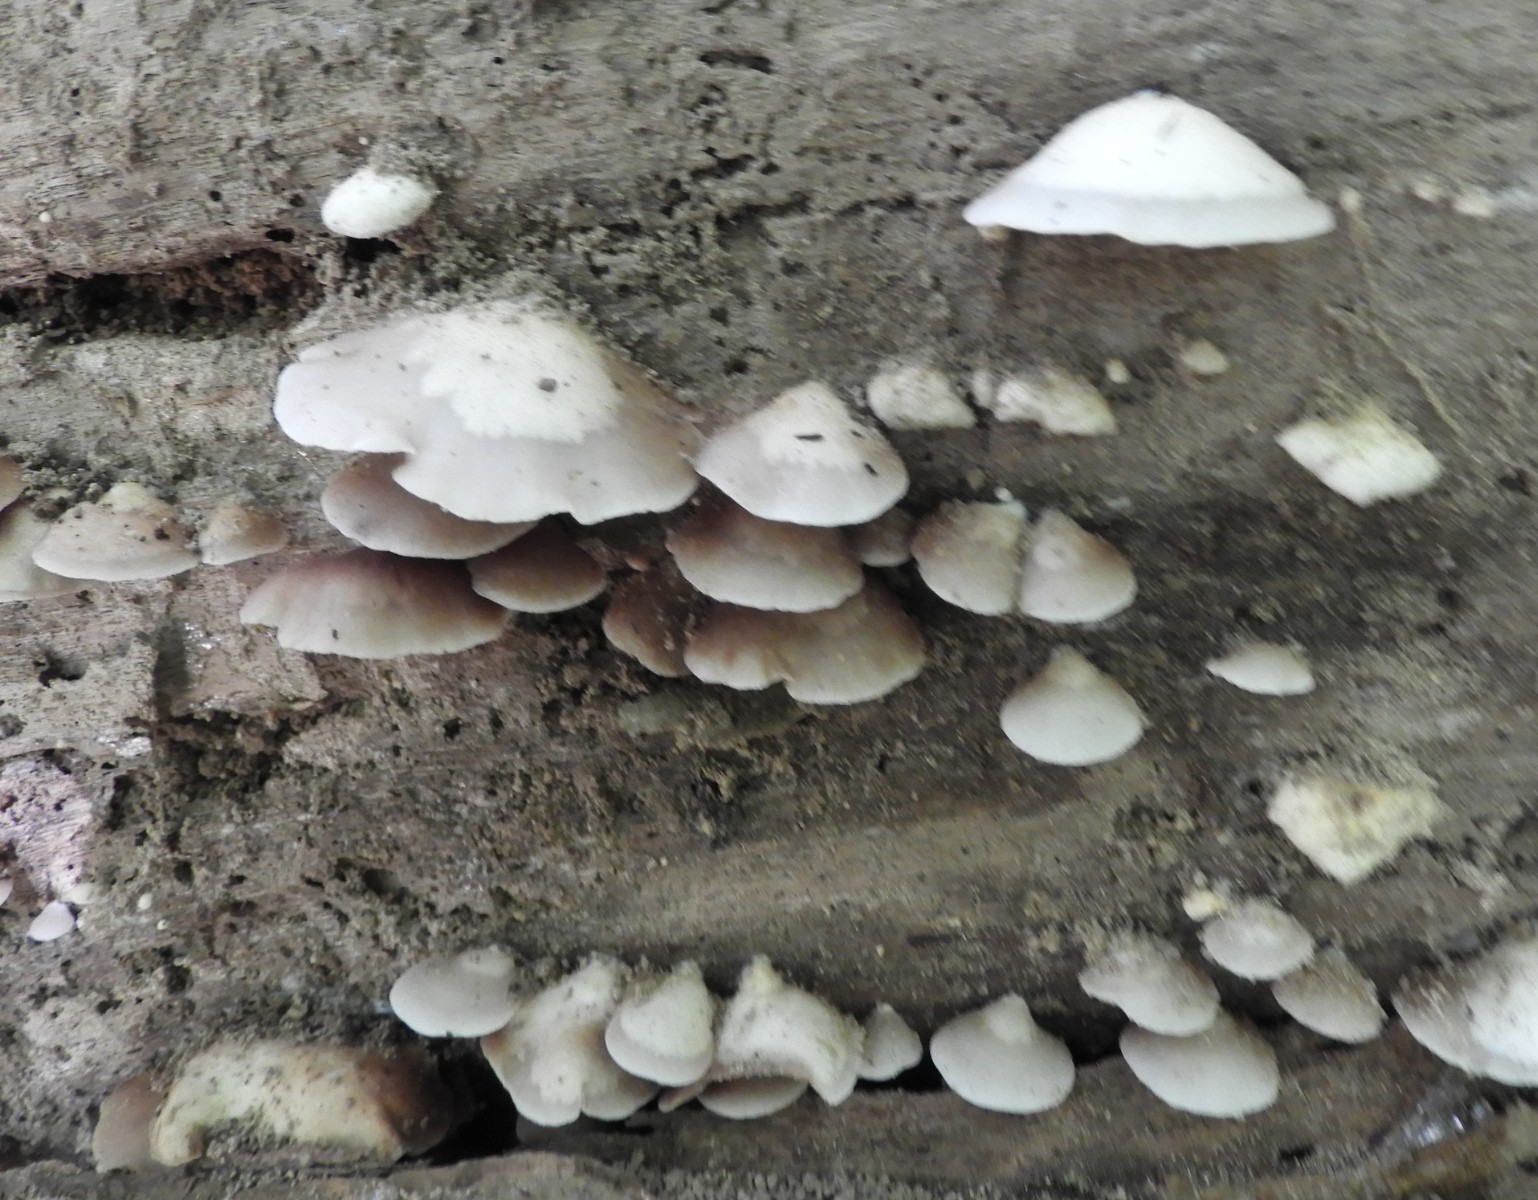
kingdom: Fungi
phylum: Basidiomycota
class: Agaricomycetes
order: Agaricales
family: Crepidotaceae
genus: Crepidotus
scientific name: Crepidotus mollis
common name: blød muslingesvamp
